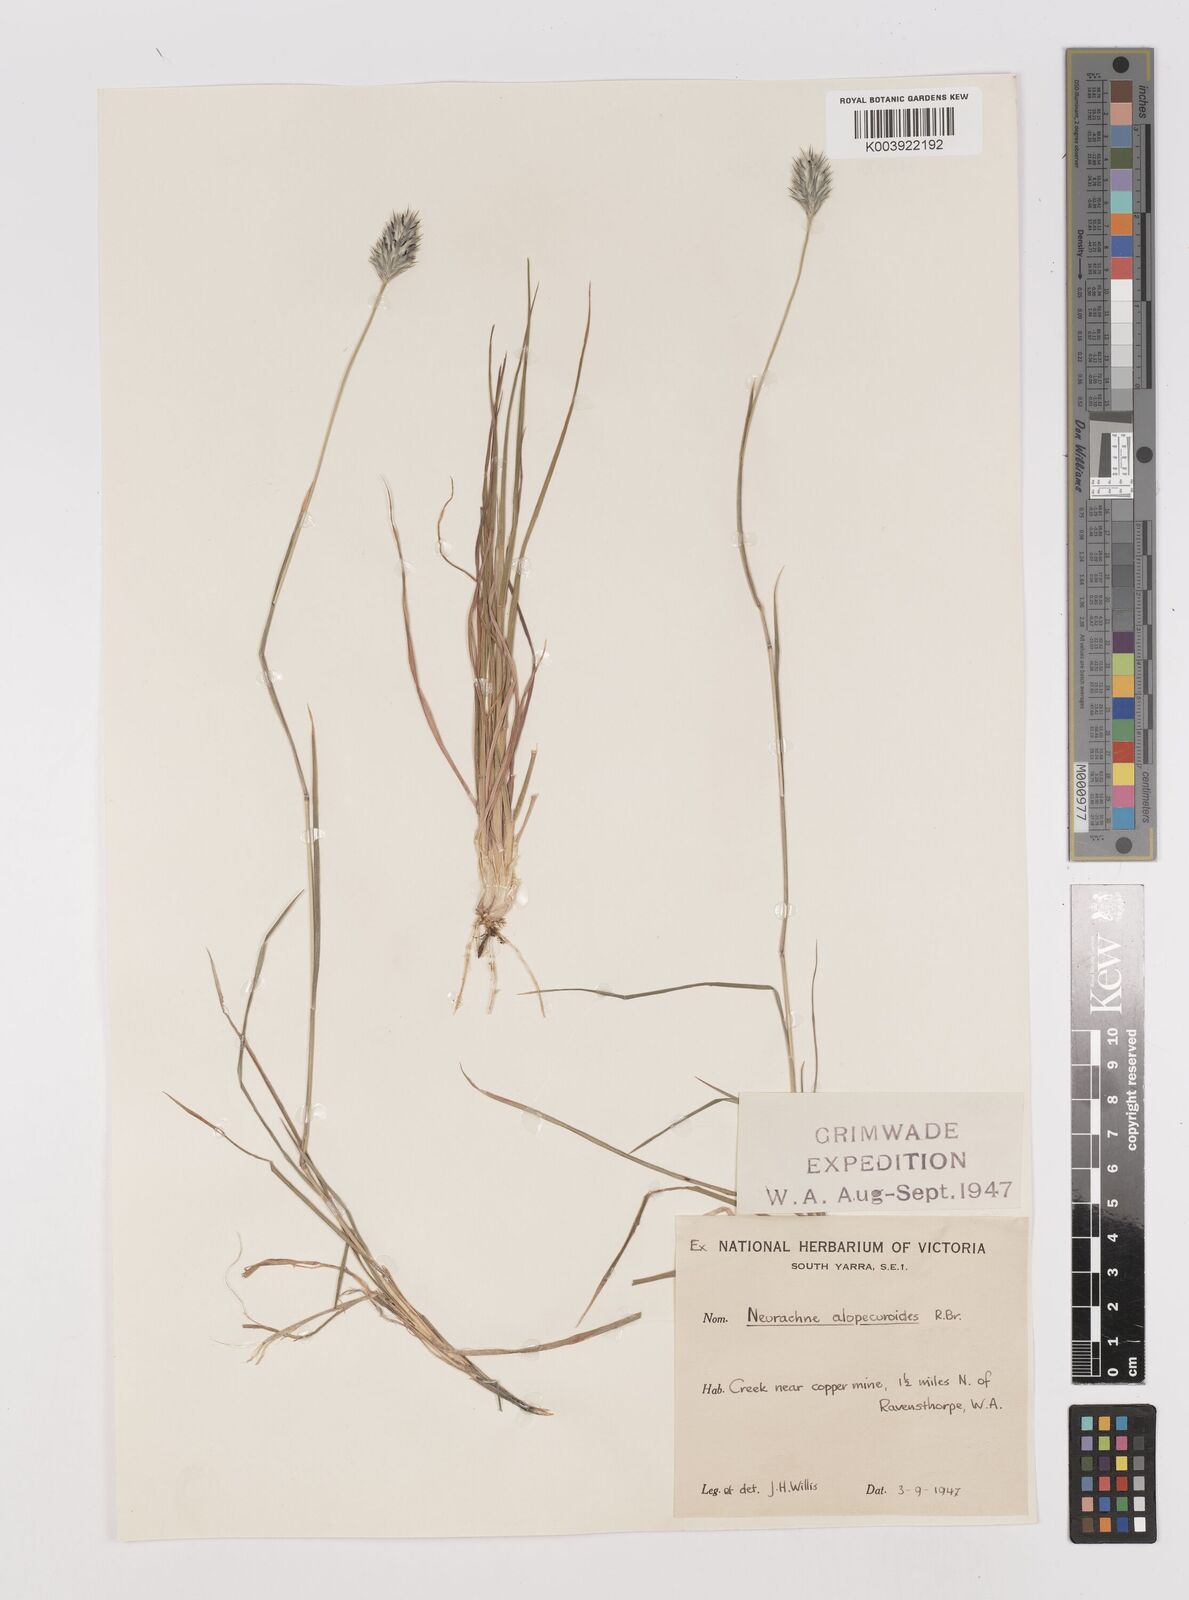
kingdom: Plantae
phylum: Tracheophyta
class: Liliopsida
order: Poales
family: Poaceae
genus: Neurachne
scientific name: Neurachne alopecuroidea
